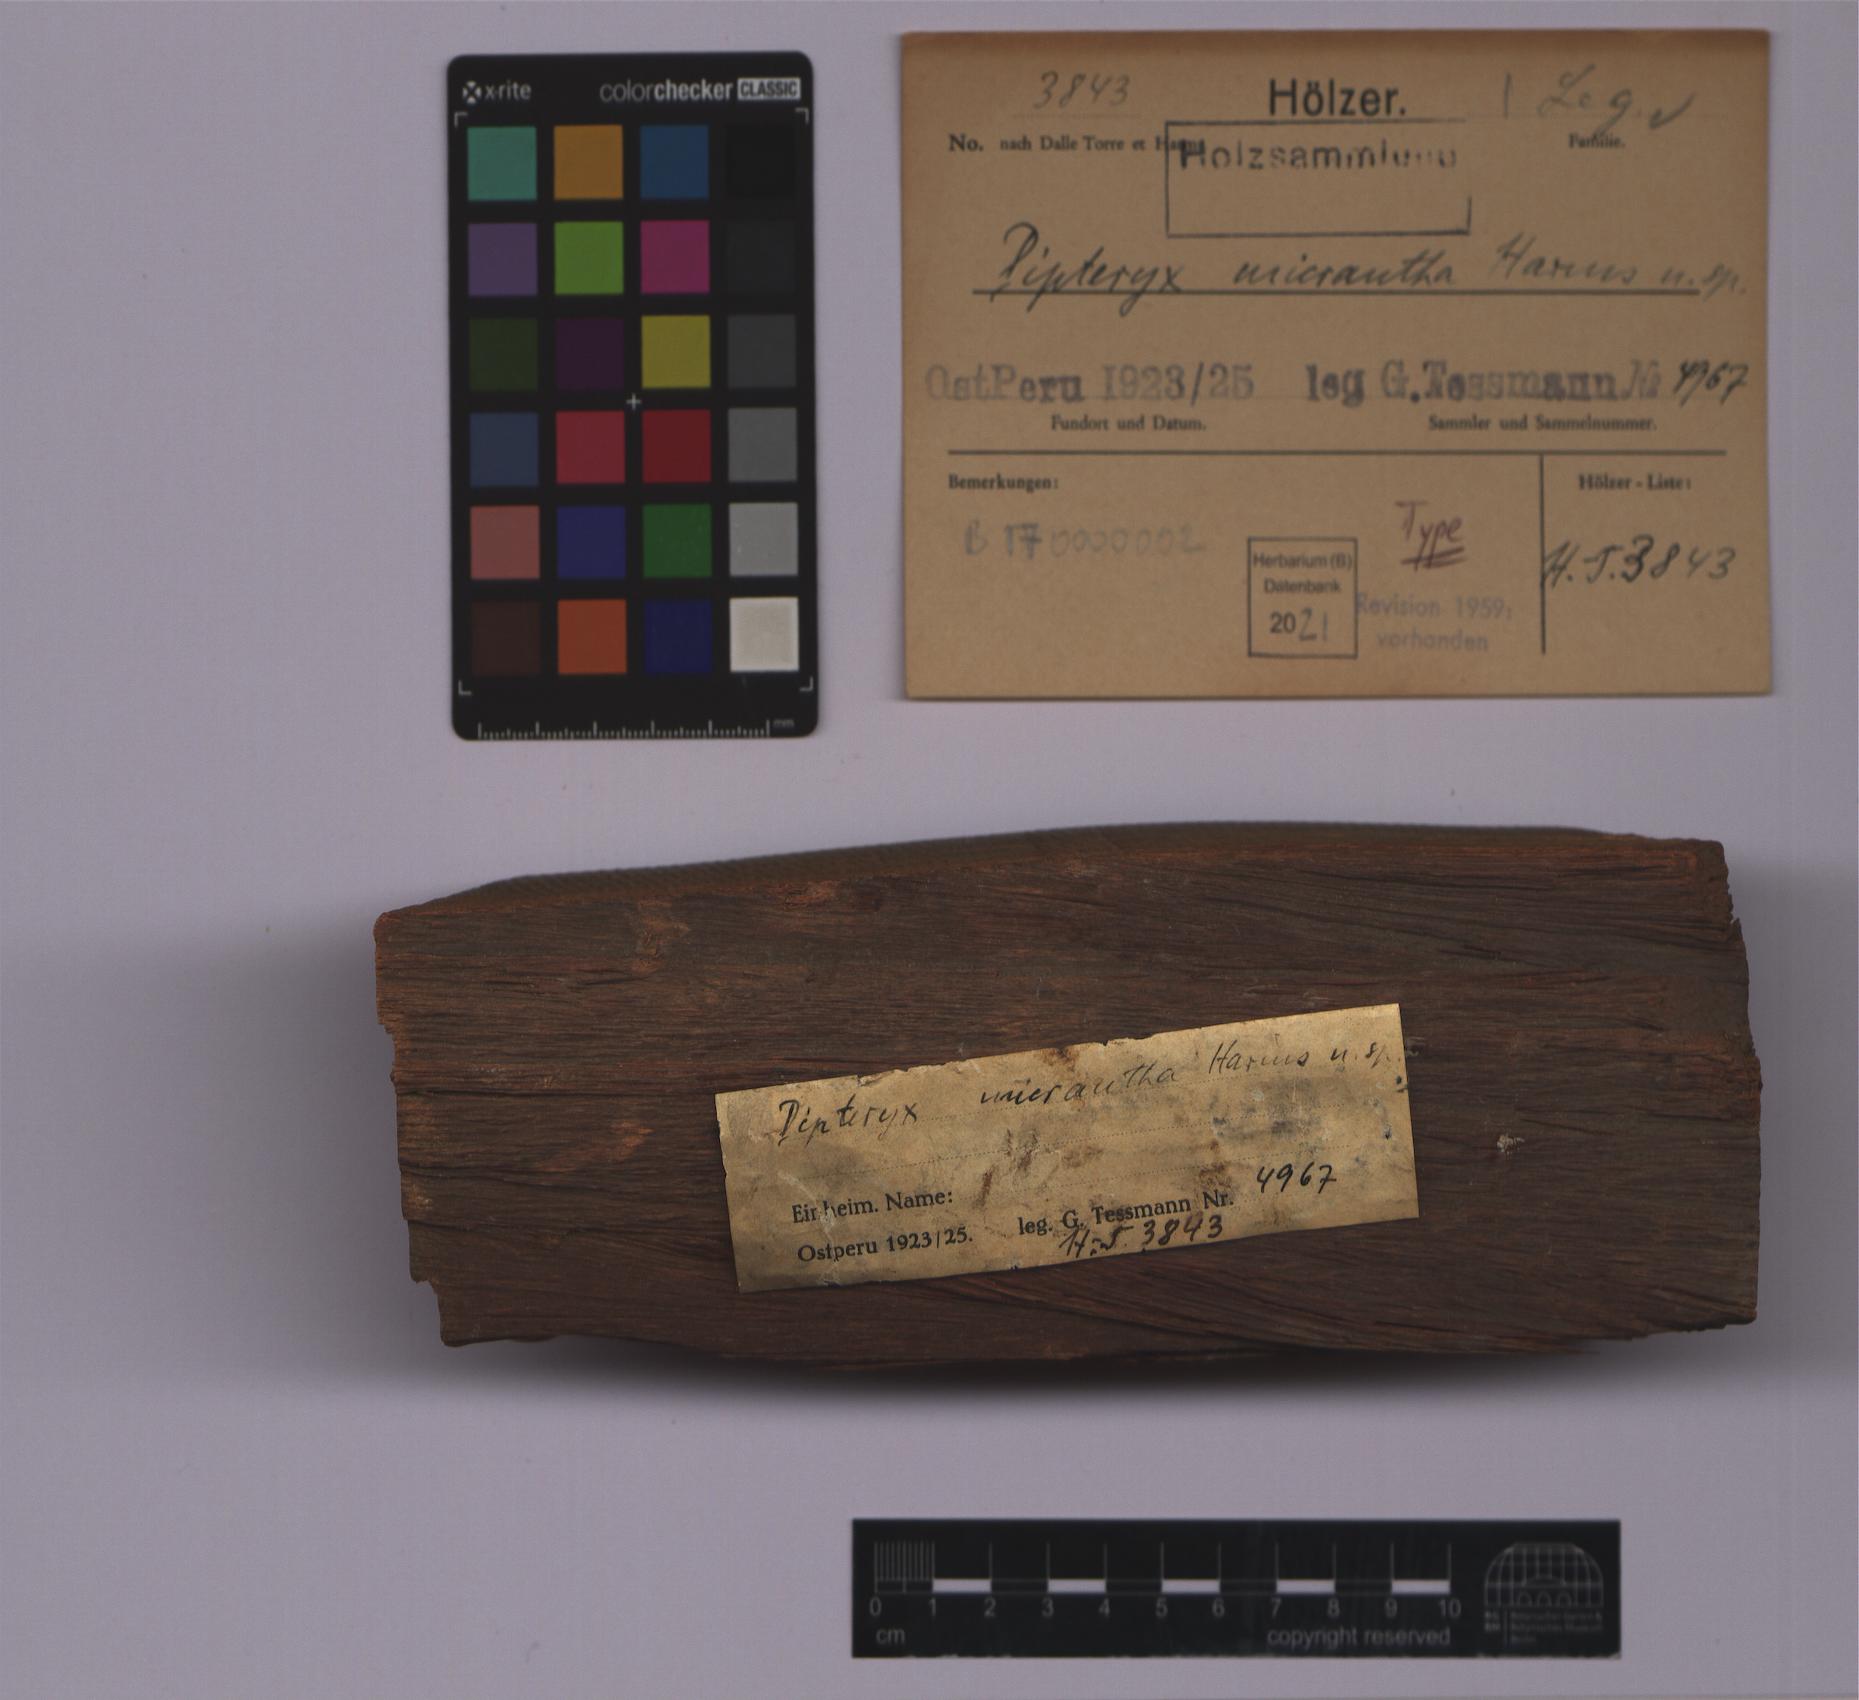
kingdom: Plantae
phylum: Tracheophyta
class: Magnoliopsida
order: Fabales
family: Fabaceae
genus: Dipteryx
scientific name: Dipteryx micrantha
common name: Brazilian teak
